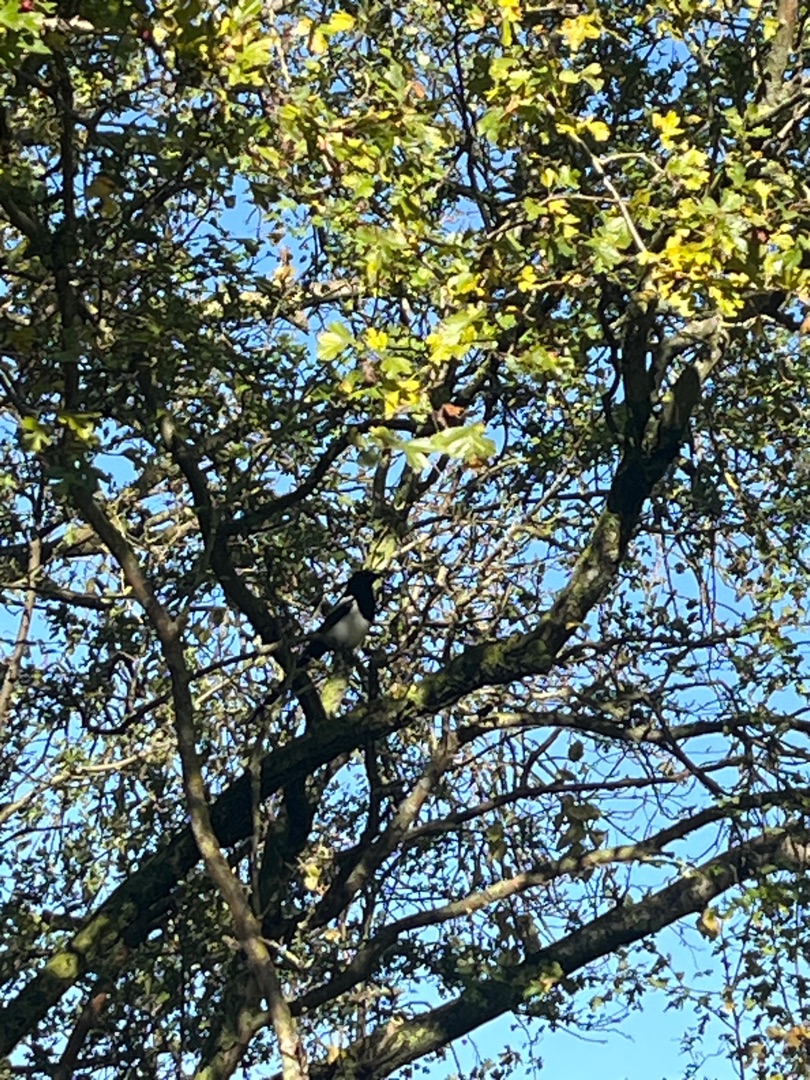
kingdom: Animalia
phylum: Chordata
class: Aves
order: Passeriformes
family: Corvidae
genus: Pica
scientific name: Pica pica
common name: Husskade
